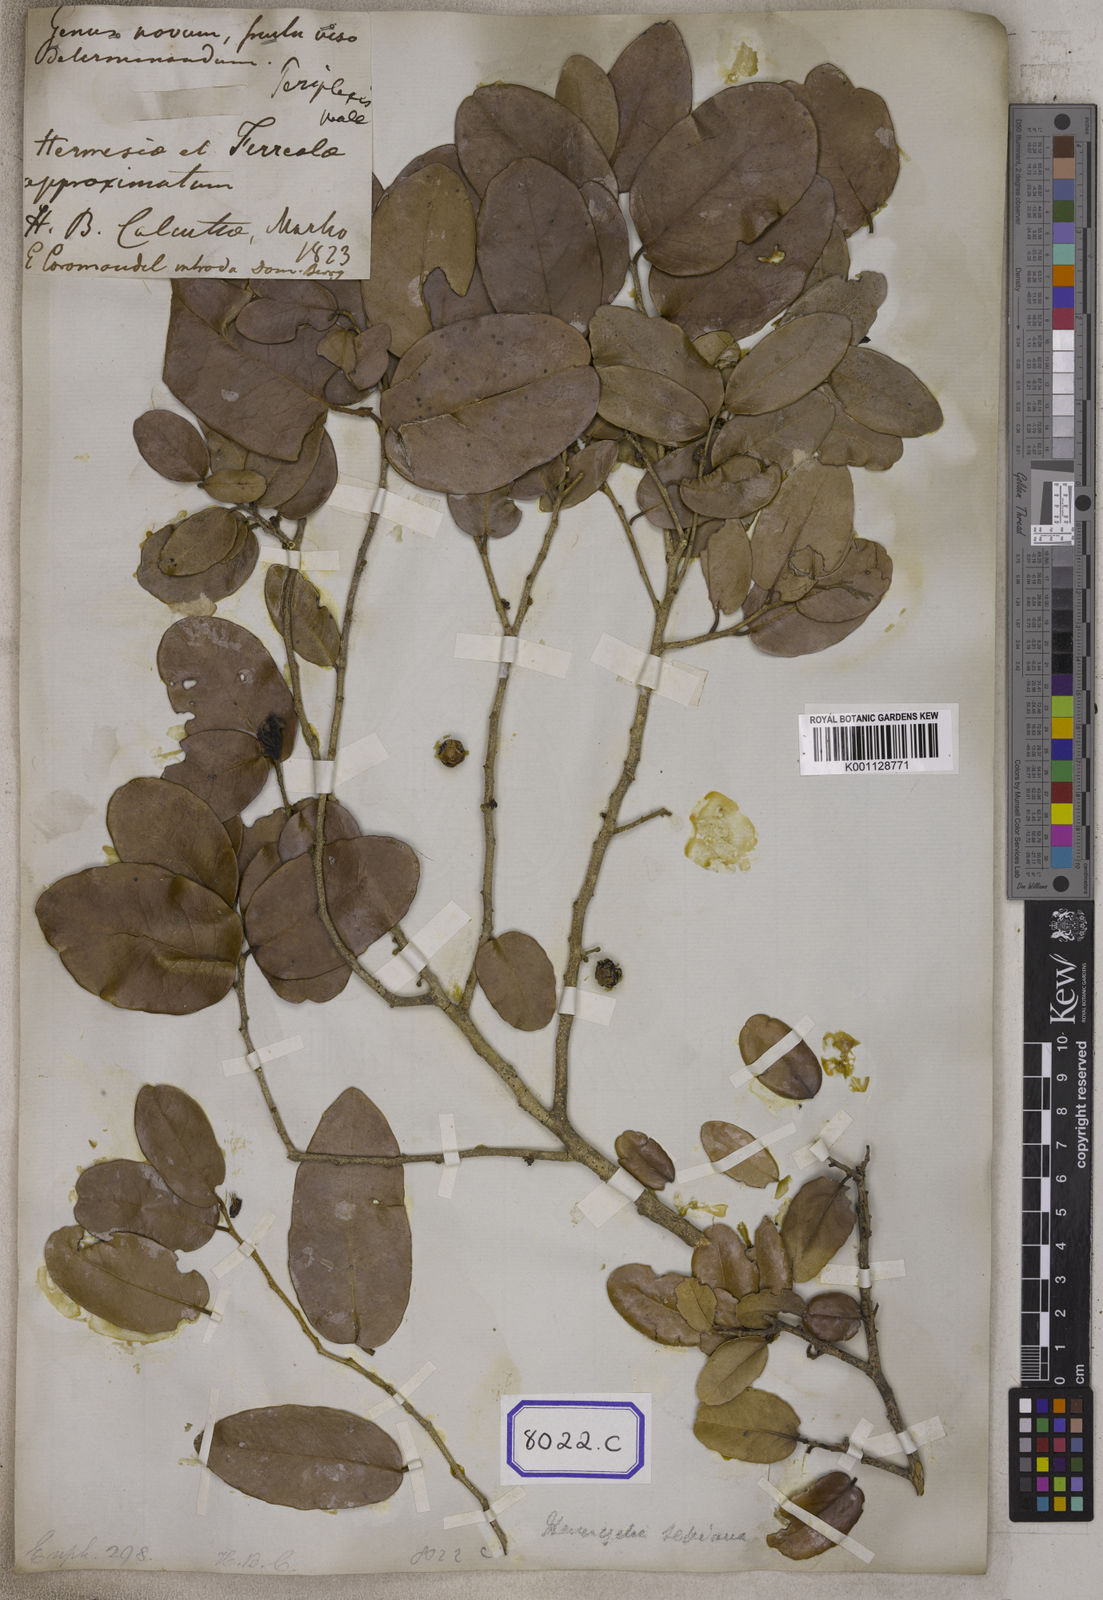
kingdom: Plantae
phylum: Tracheophyta
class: Magnoliopsida
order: Malpighiales
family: Euphorbiaceae
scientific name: Euphorbiaceae
